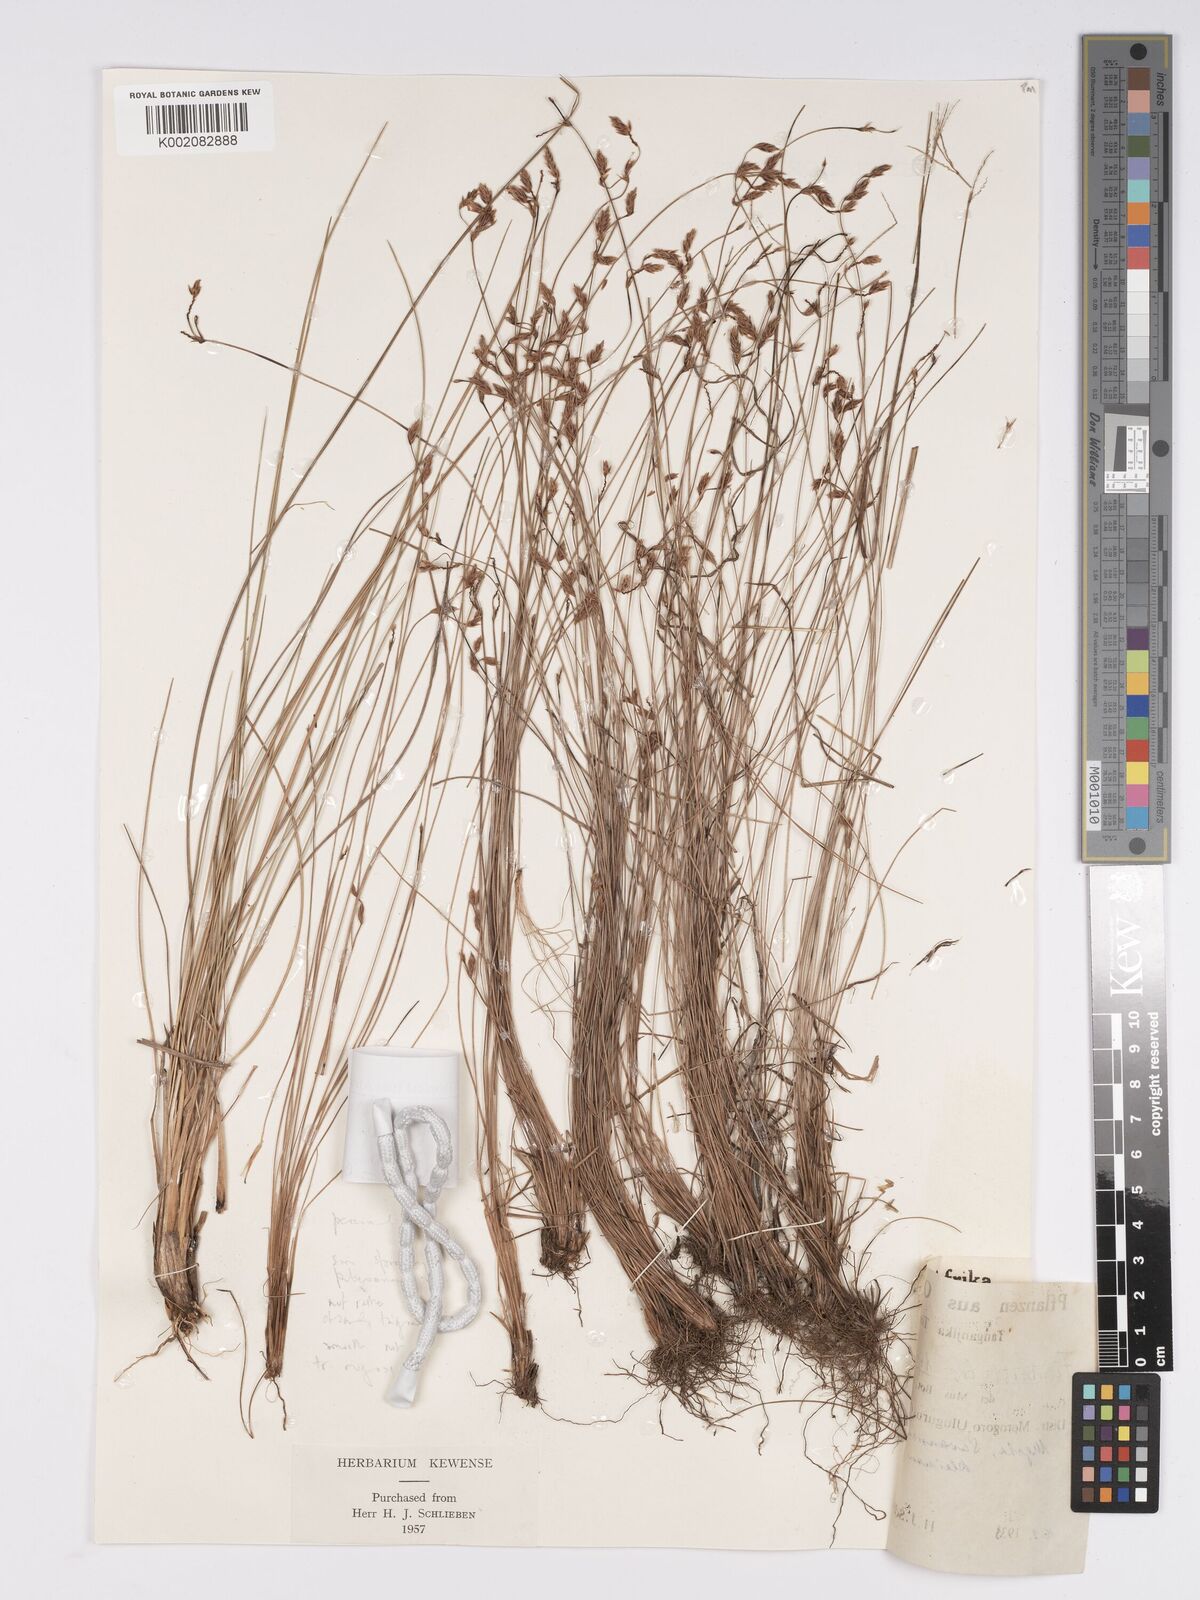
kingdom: Plantae
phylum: Tracheophyta
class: Liliopsida
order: Poales
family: Cyperaceae
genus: Bulbostylis
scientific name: Bulbostylis hispidula
